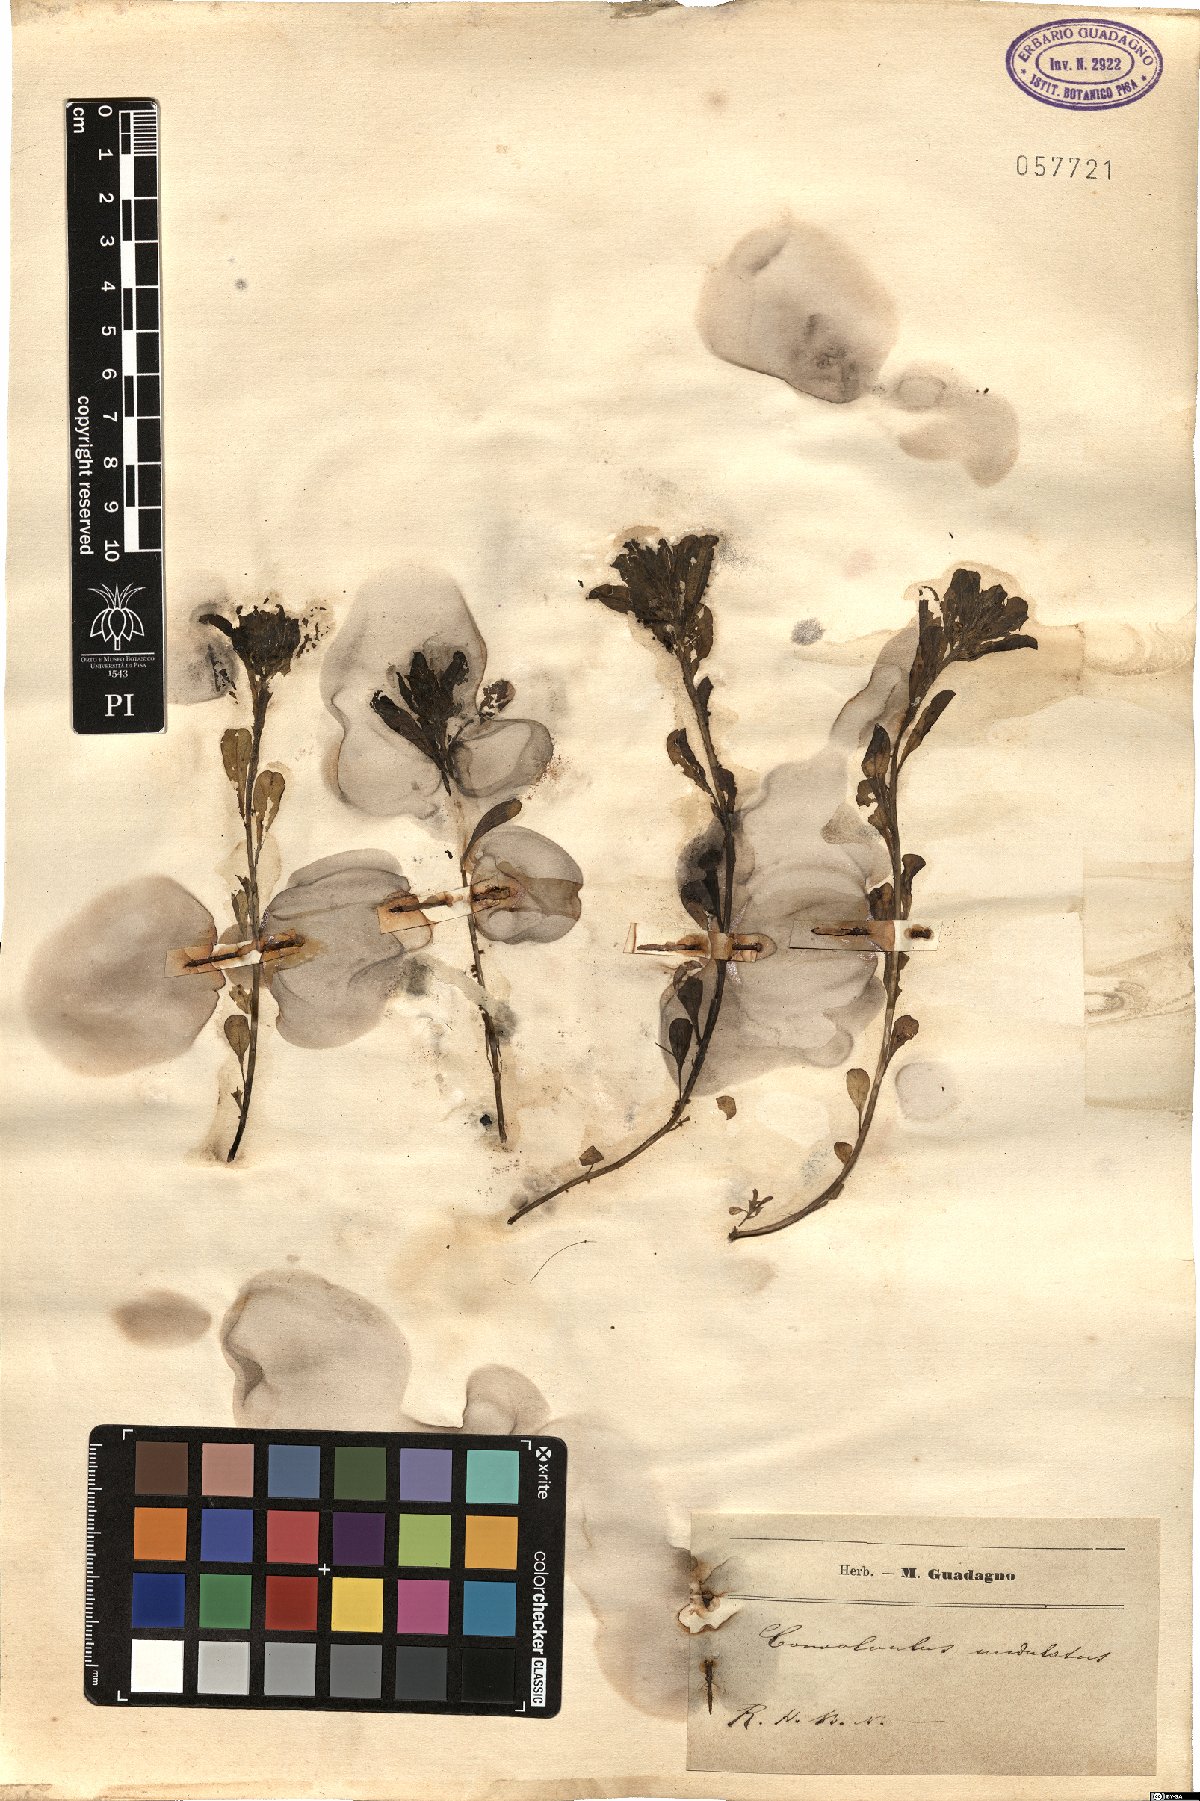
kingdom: Plantae
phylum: Tracheophyta
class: Magnoliopsida
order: Solanales
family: Convolvulaceae
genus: Convolvulus
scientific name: Convolvulus humilis
